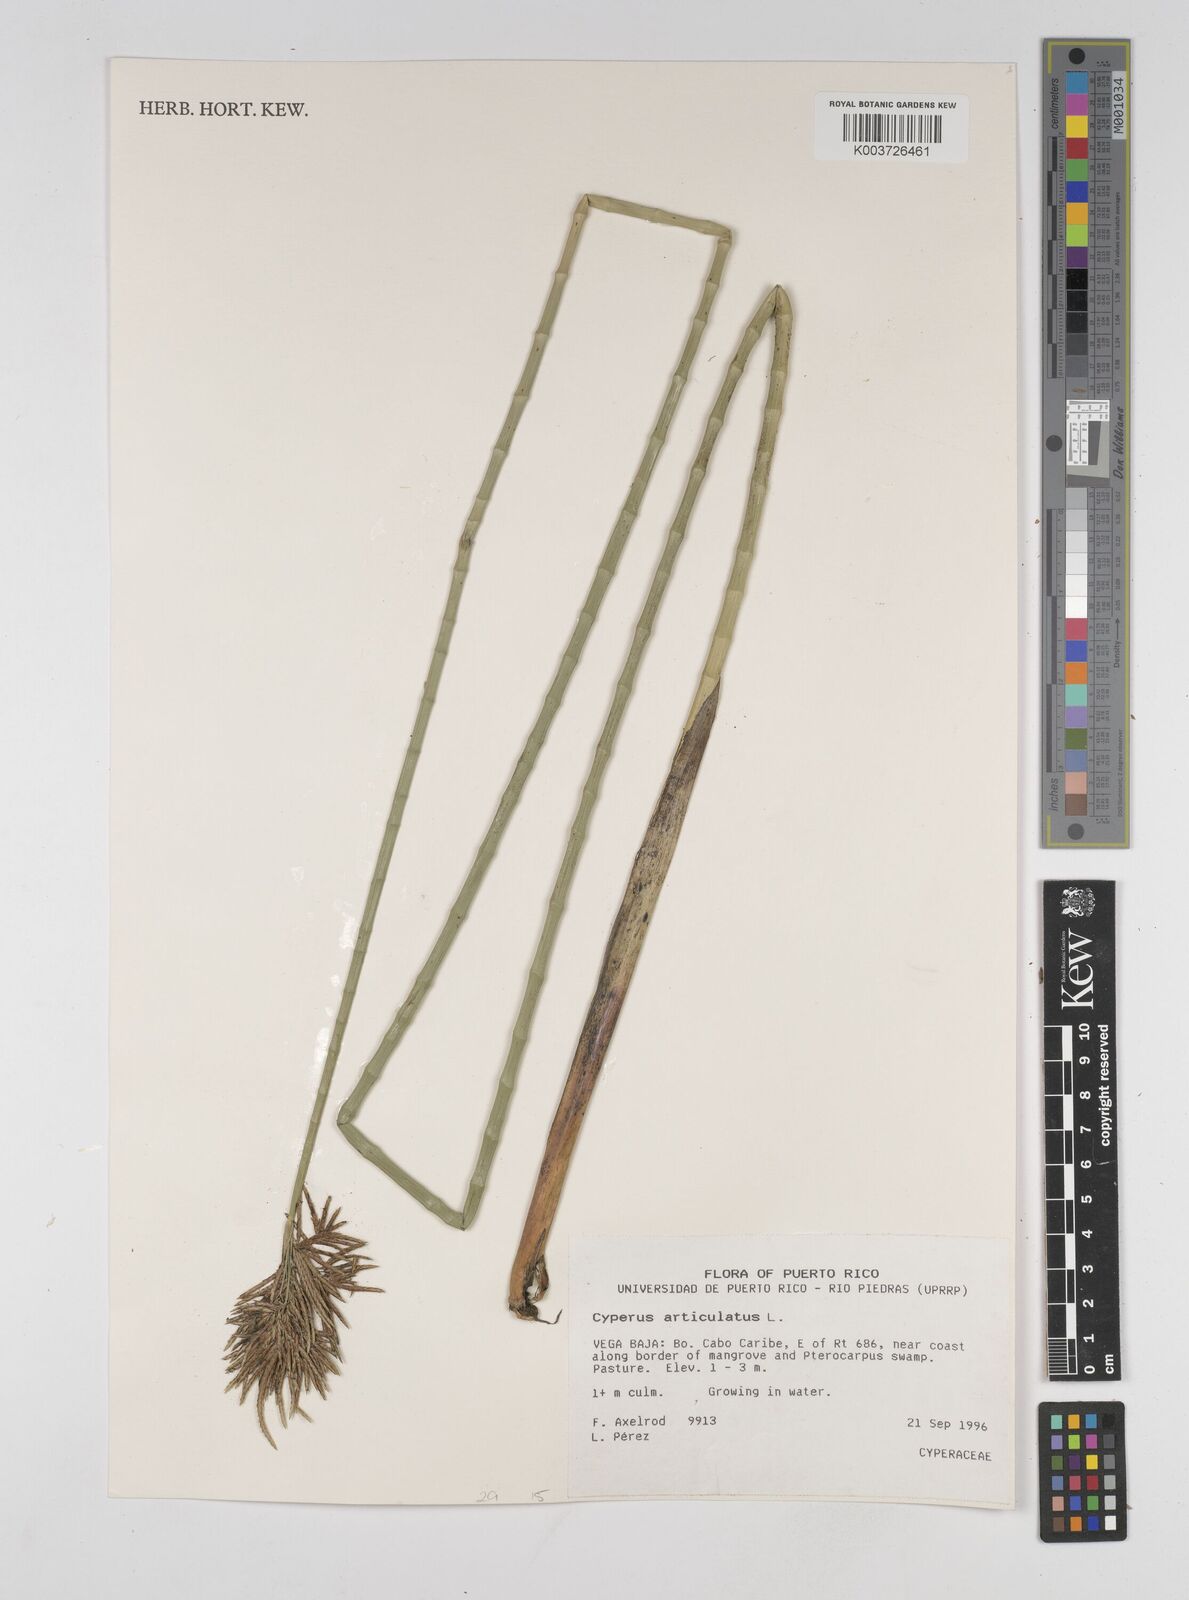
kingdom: Plantae
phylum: Tracheophyta
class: Liliopsida
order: Poales
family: Cyperaceae
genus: Cyperus
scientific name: Cyperus articulatus
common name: Jointed flatsedge
